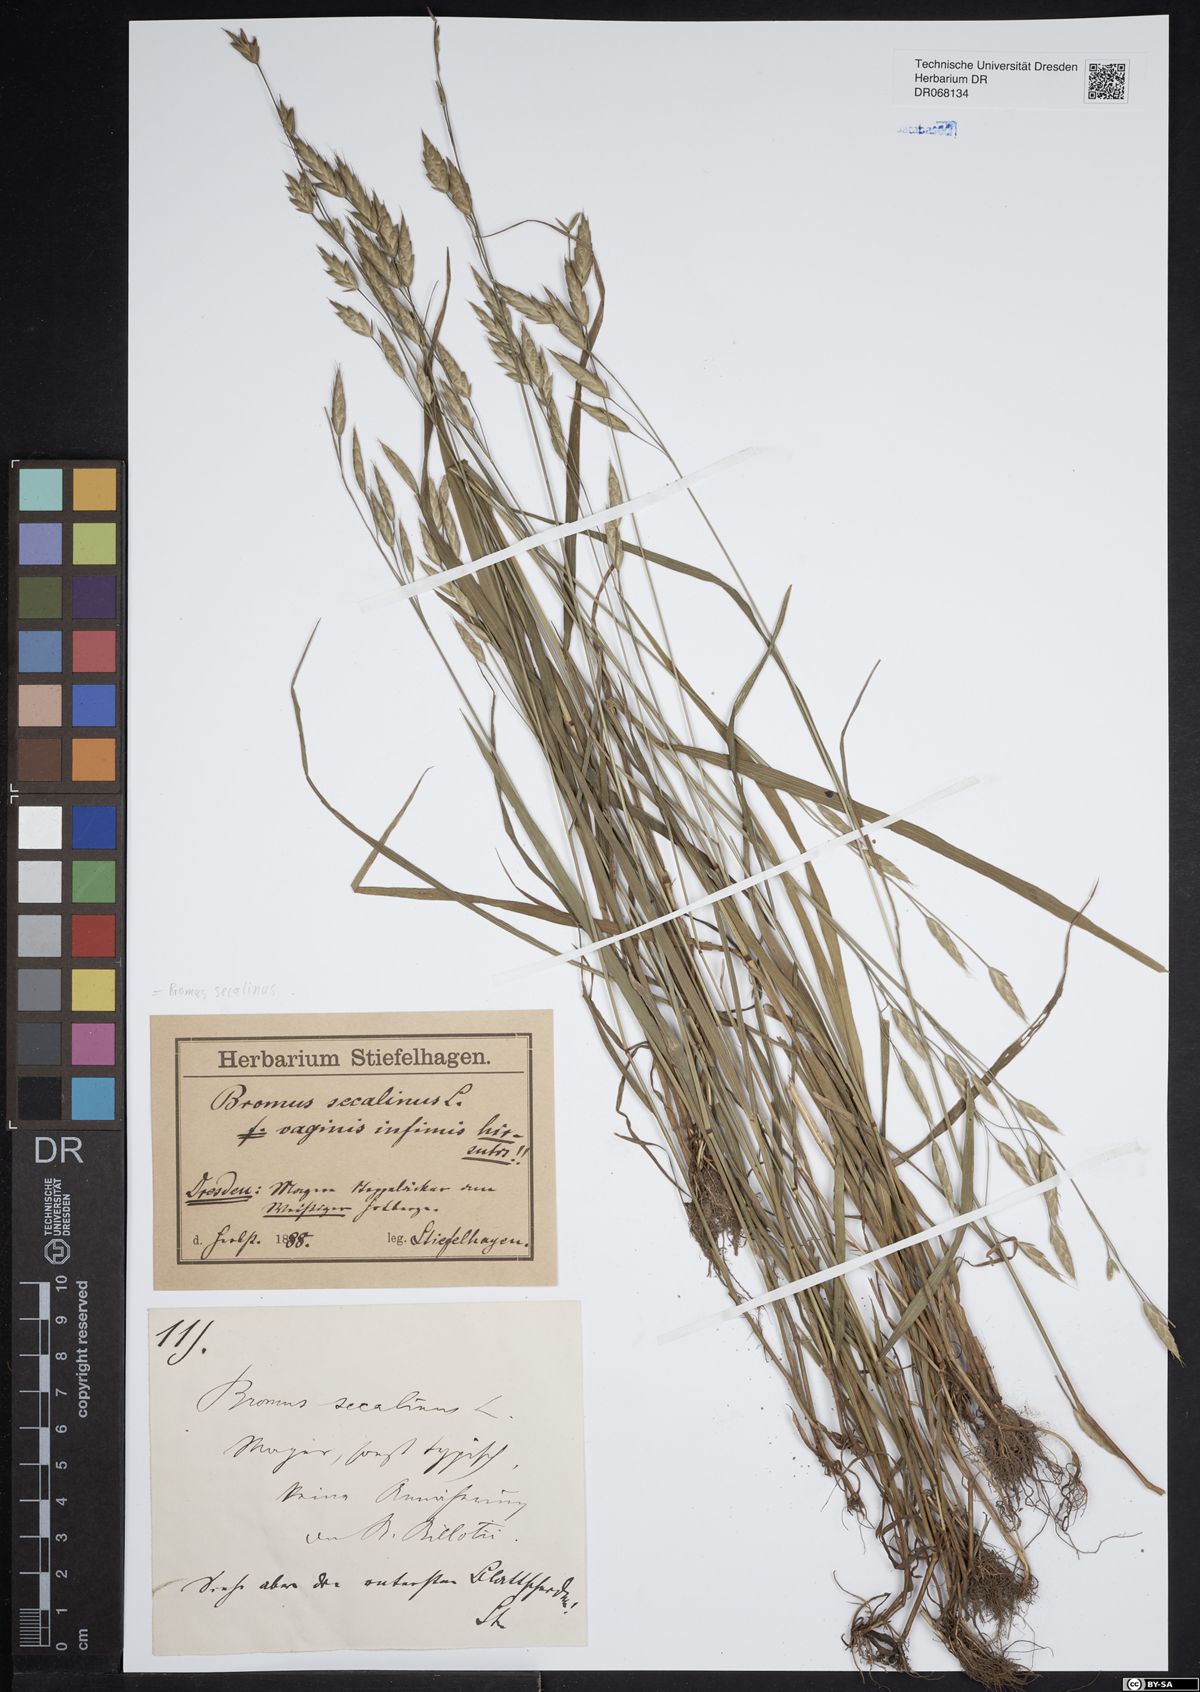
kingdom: Plantae
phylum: Tracheophyta
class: Liliopsida
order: Poales
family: Poaceae
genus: Bromus
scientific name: Bromus secalinus
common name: Rye brome
